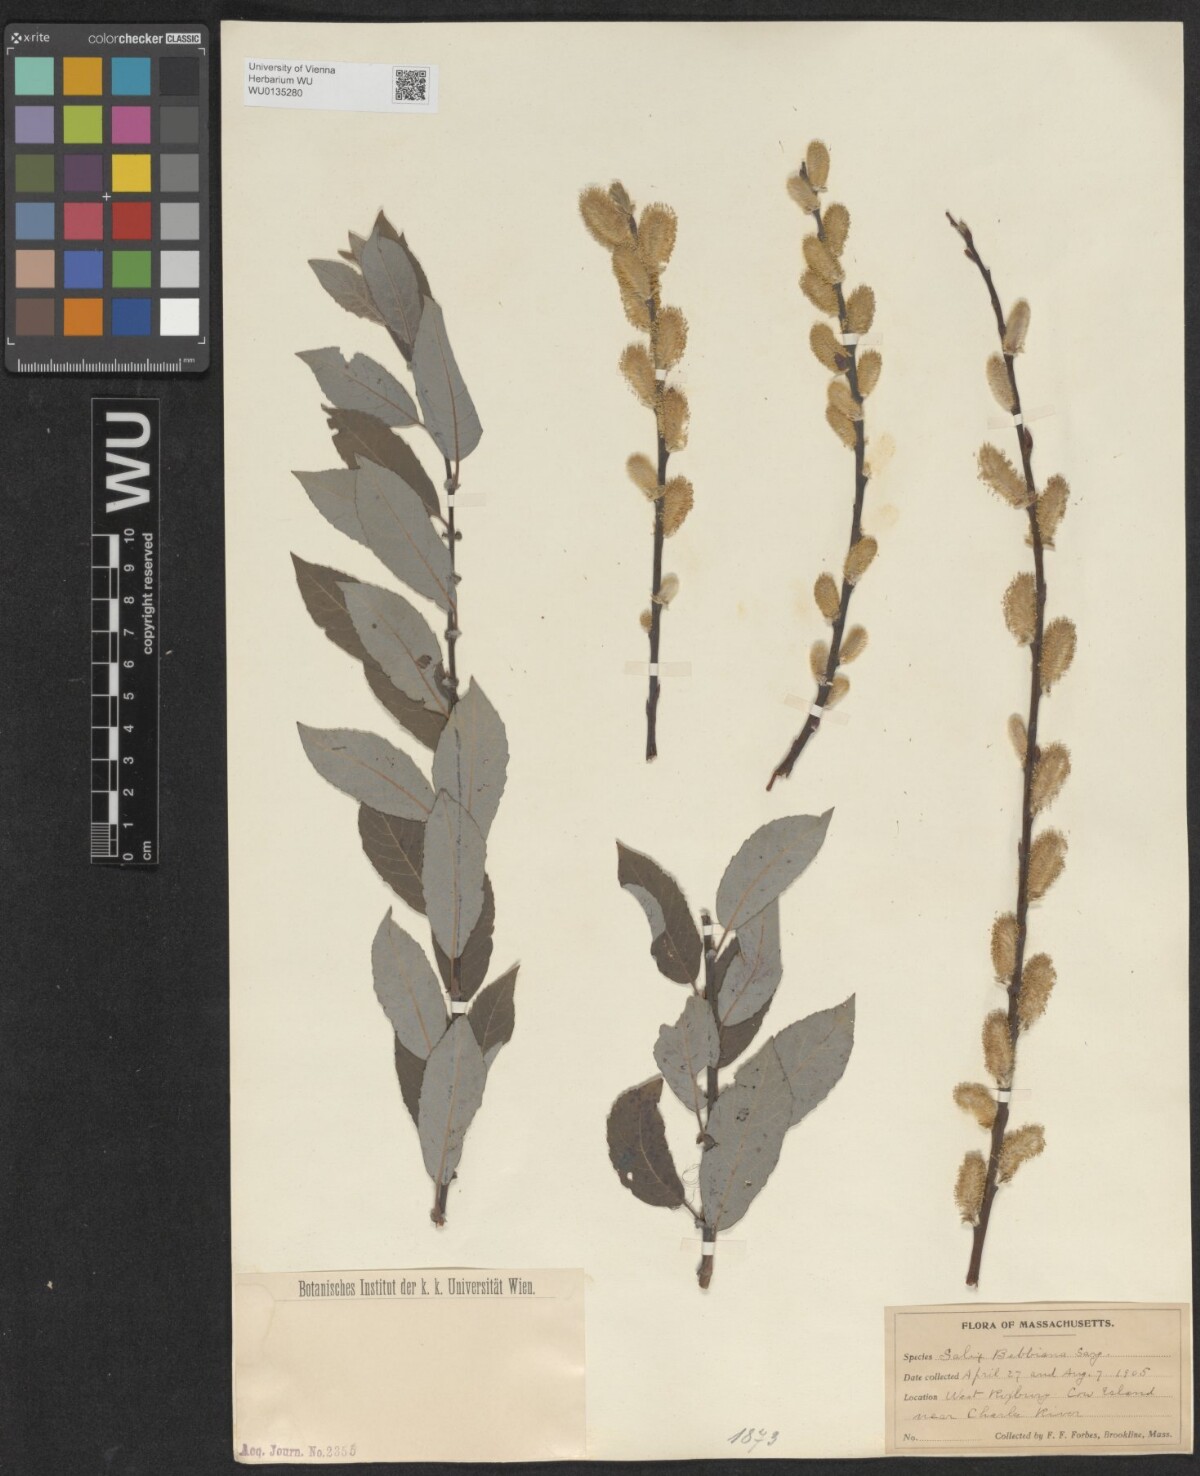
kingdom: Plantae
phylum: Tracheophyta
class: Magnoliopsida
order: Malpighiales
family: Salicaceae
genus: Salix
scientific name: Salix bebbiana
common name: Bebb's willow
